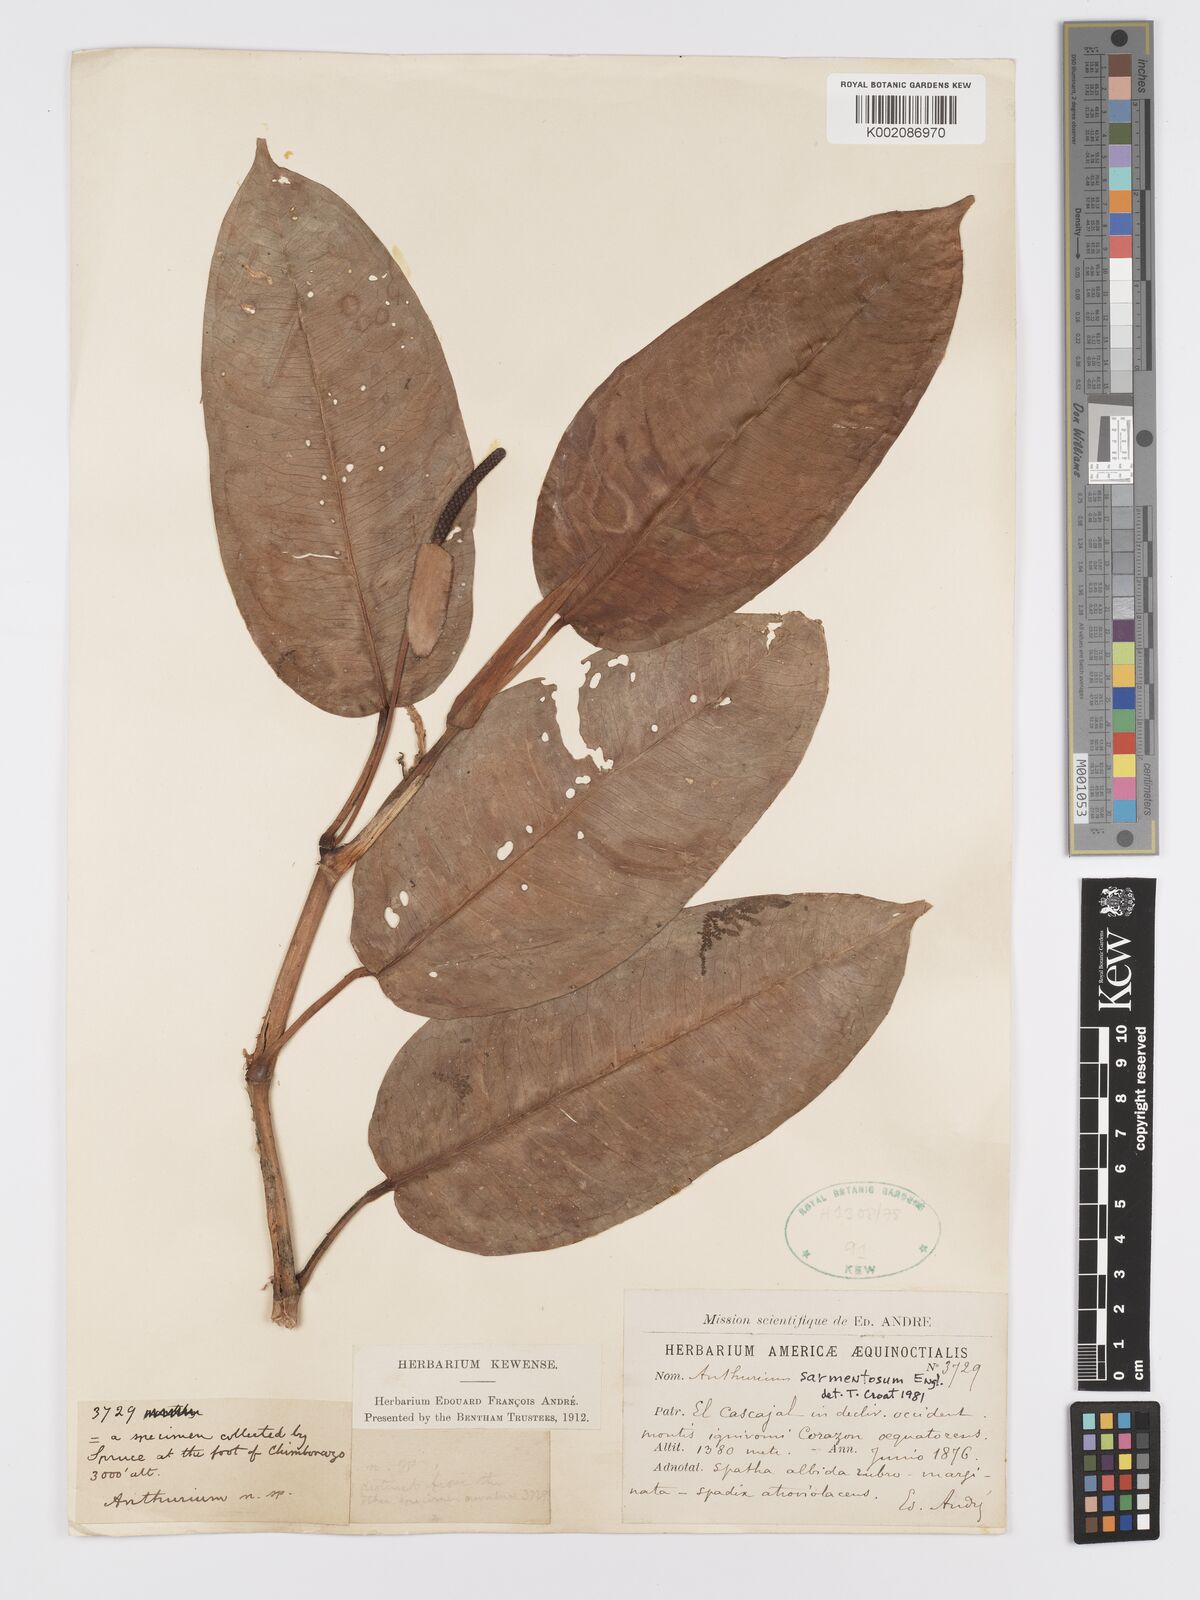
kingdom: Plantae
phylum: Tracheophyta
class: Liliopsida
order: Alismatales
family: Araceae
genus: Anthurium
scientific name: Anthurium sarmentosum
